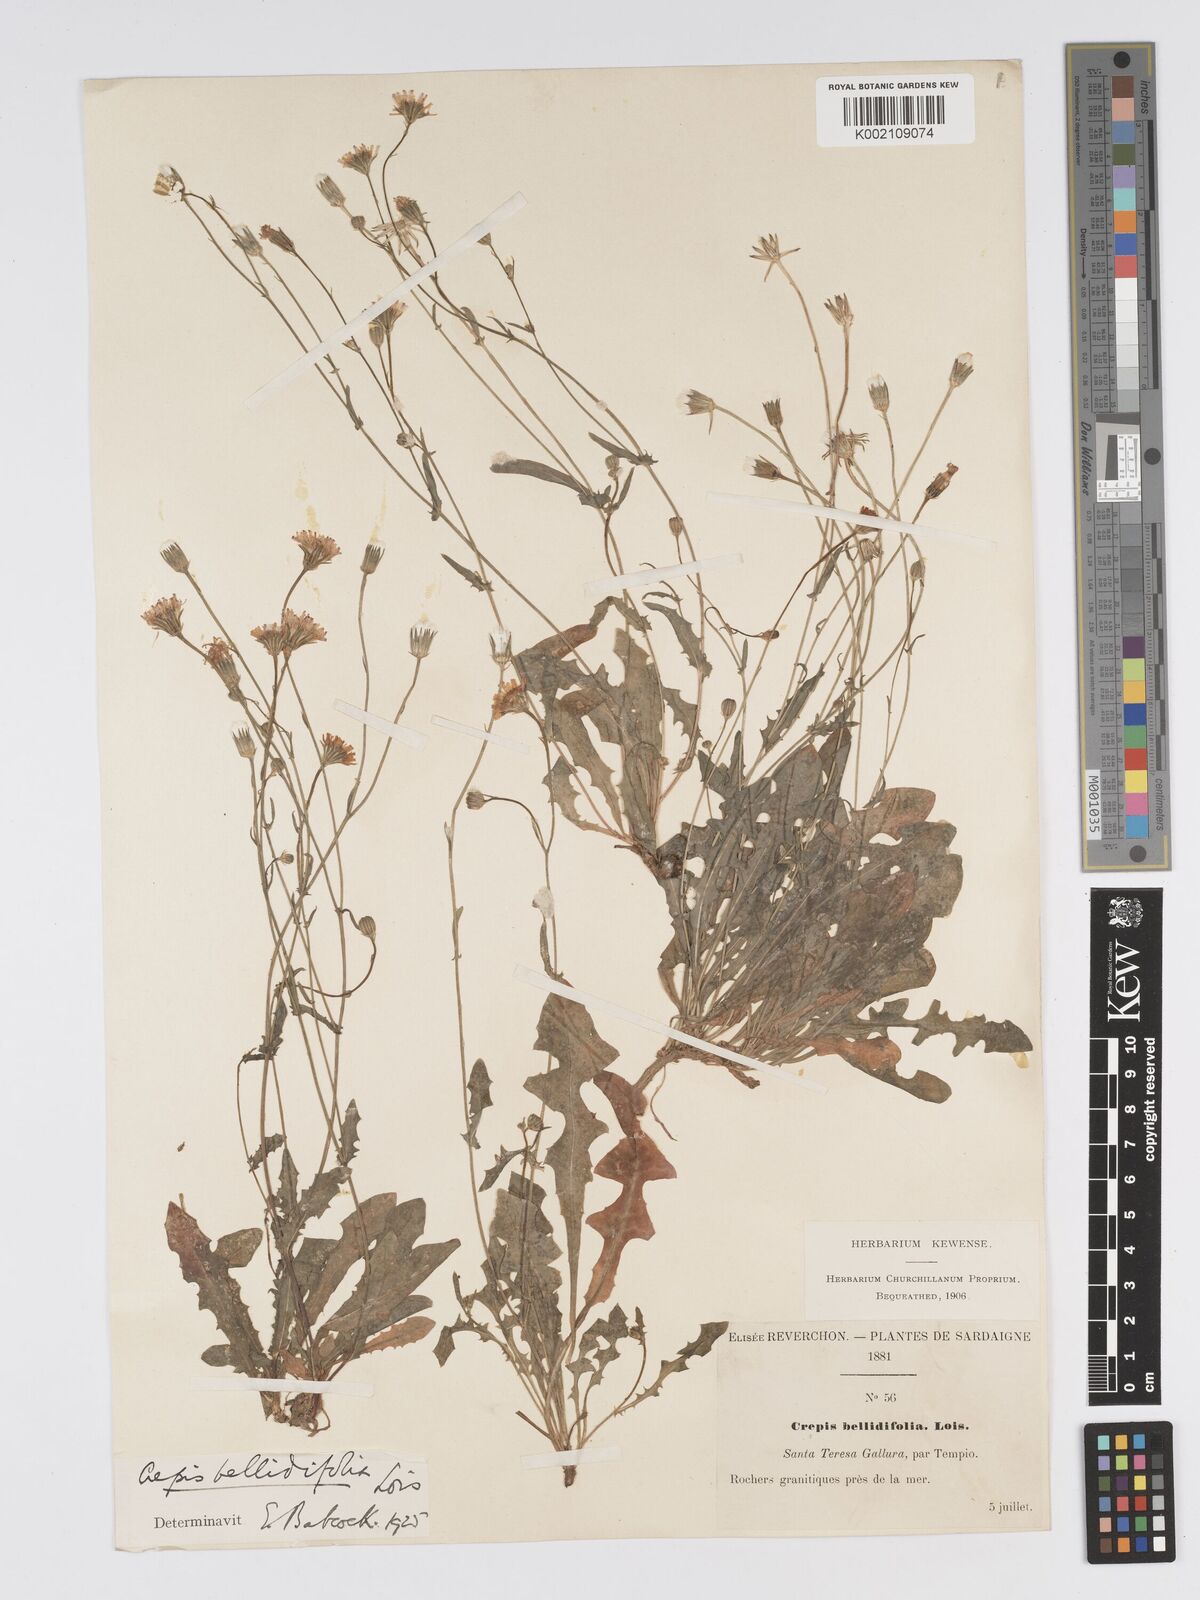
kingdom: Plantae
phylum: Tracheophyta
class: Magnoliopsida
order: Asterales
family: Asteraceae
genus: Crepis
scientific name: Crepis bellidifolia
